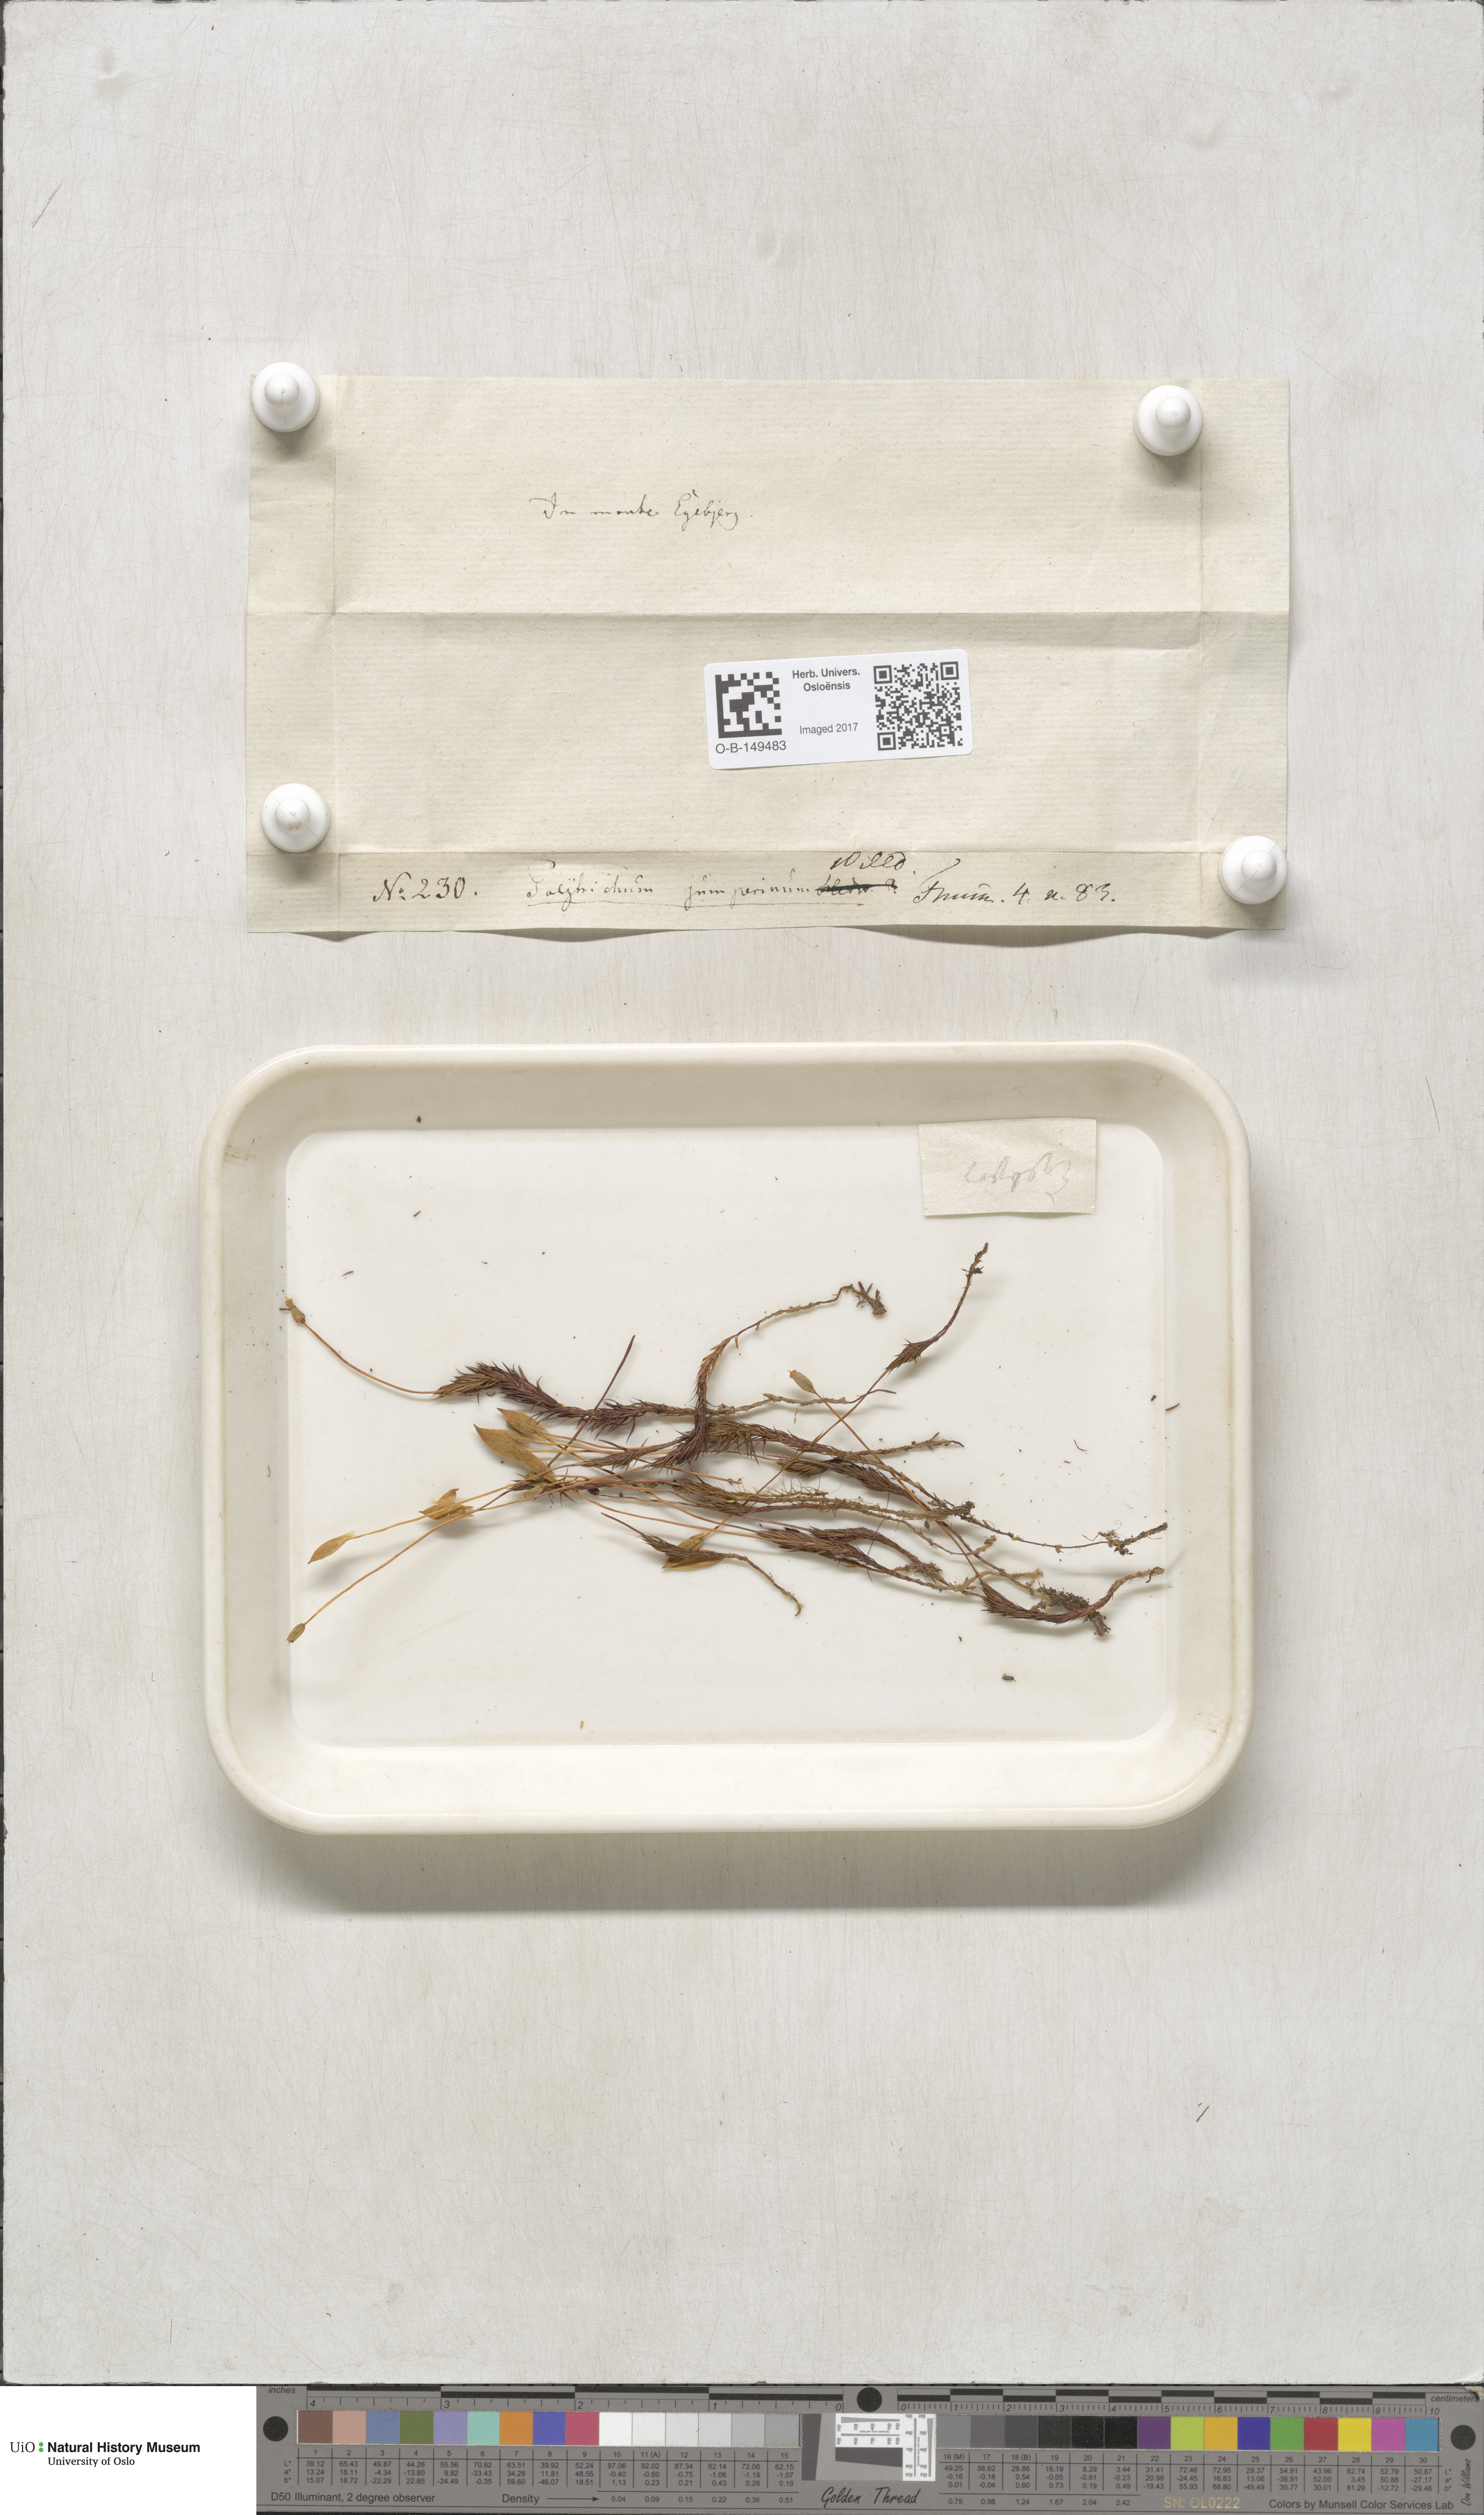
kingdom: Plantae
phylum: Bryophyta
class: Polytrichopsida
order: Polytrichales
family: Polytrichaceae
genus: Polytrichum
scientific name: Polytrichum juniperinum
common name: Juniper haircap moss
